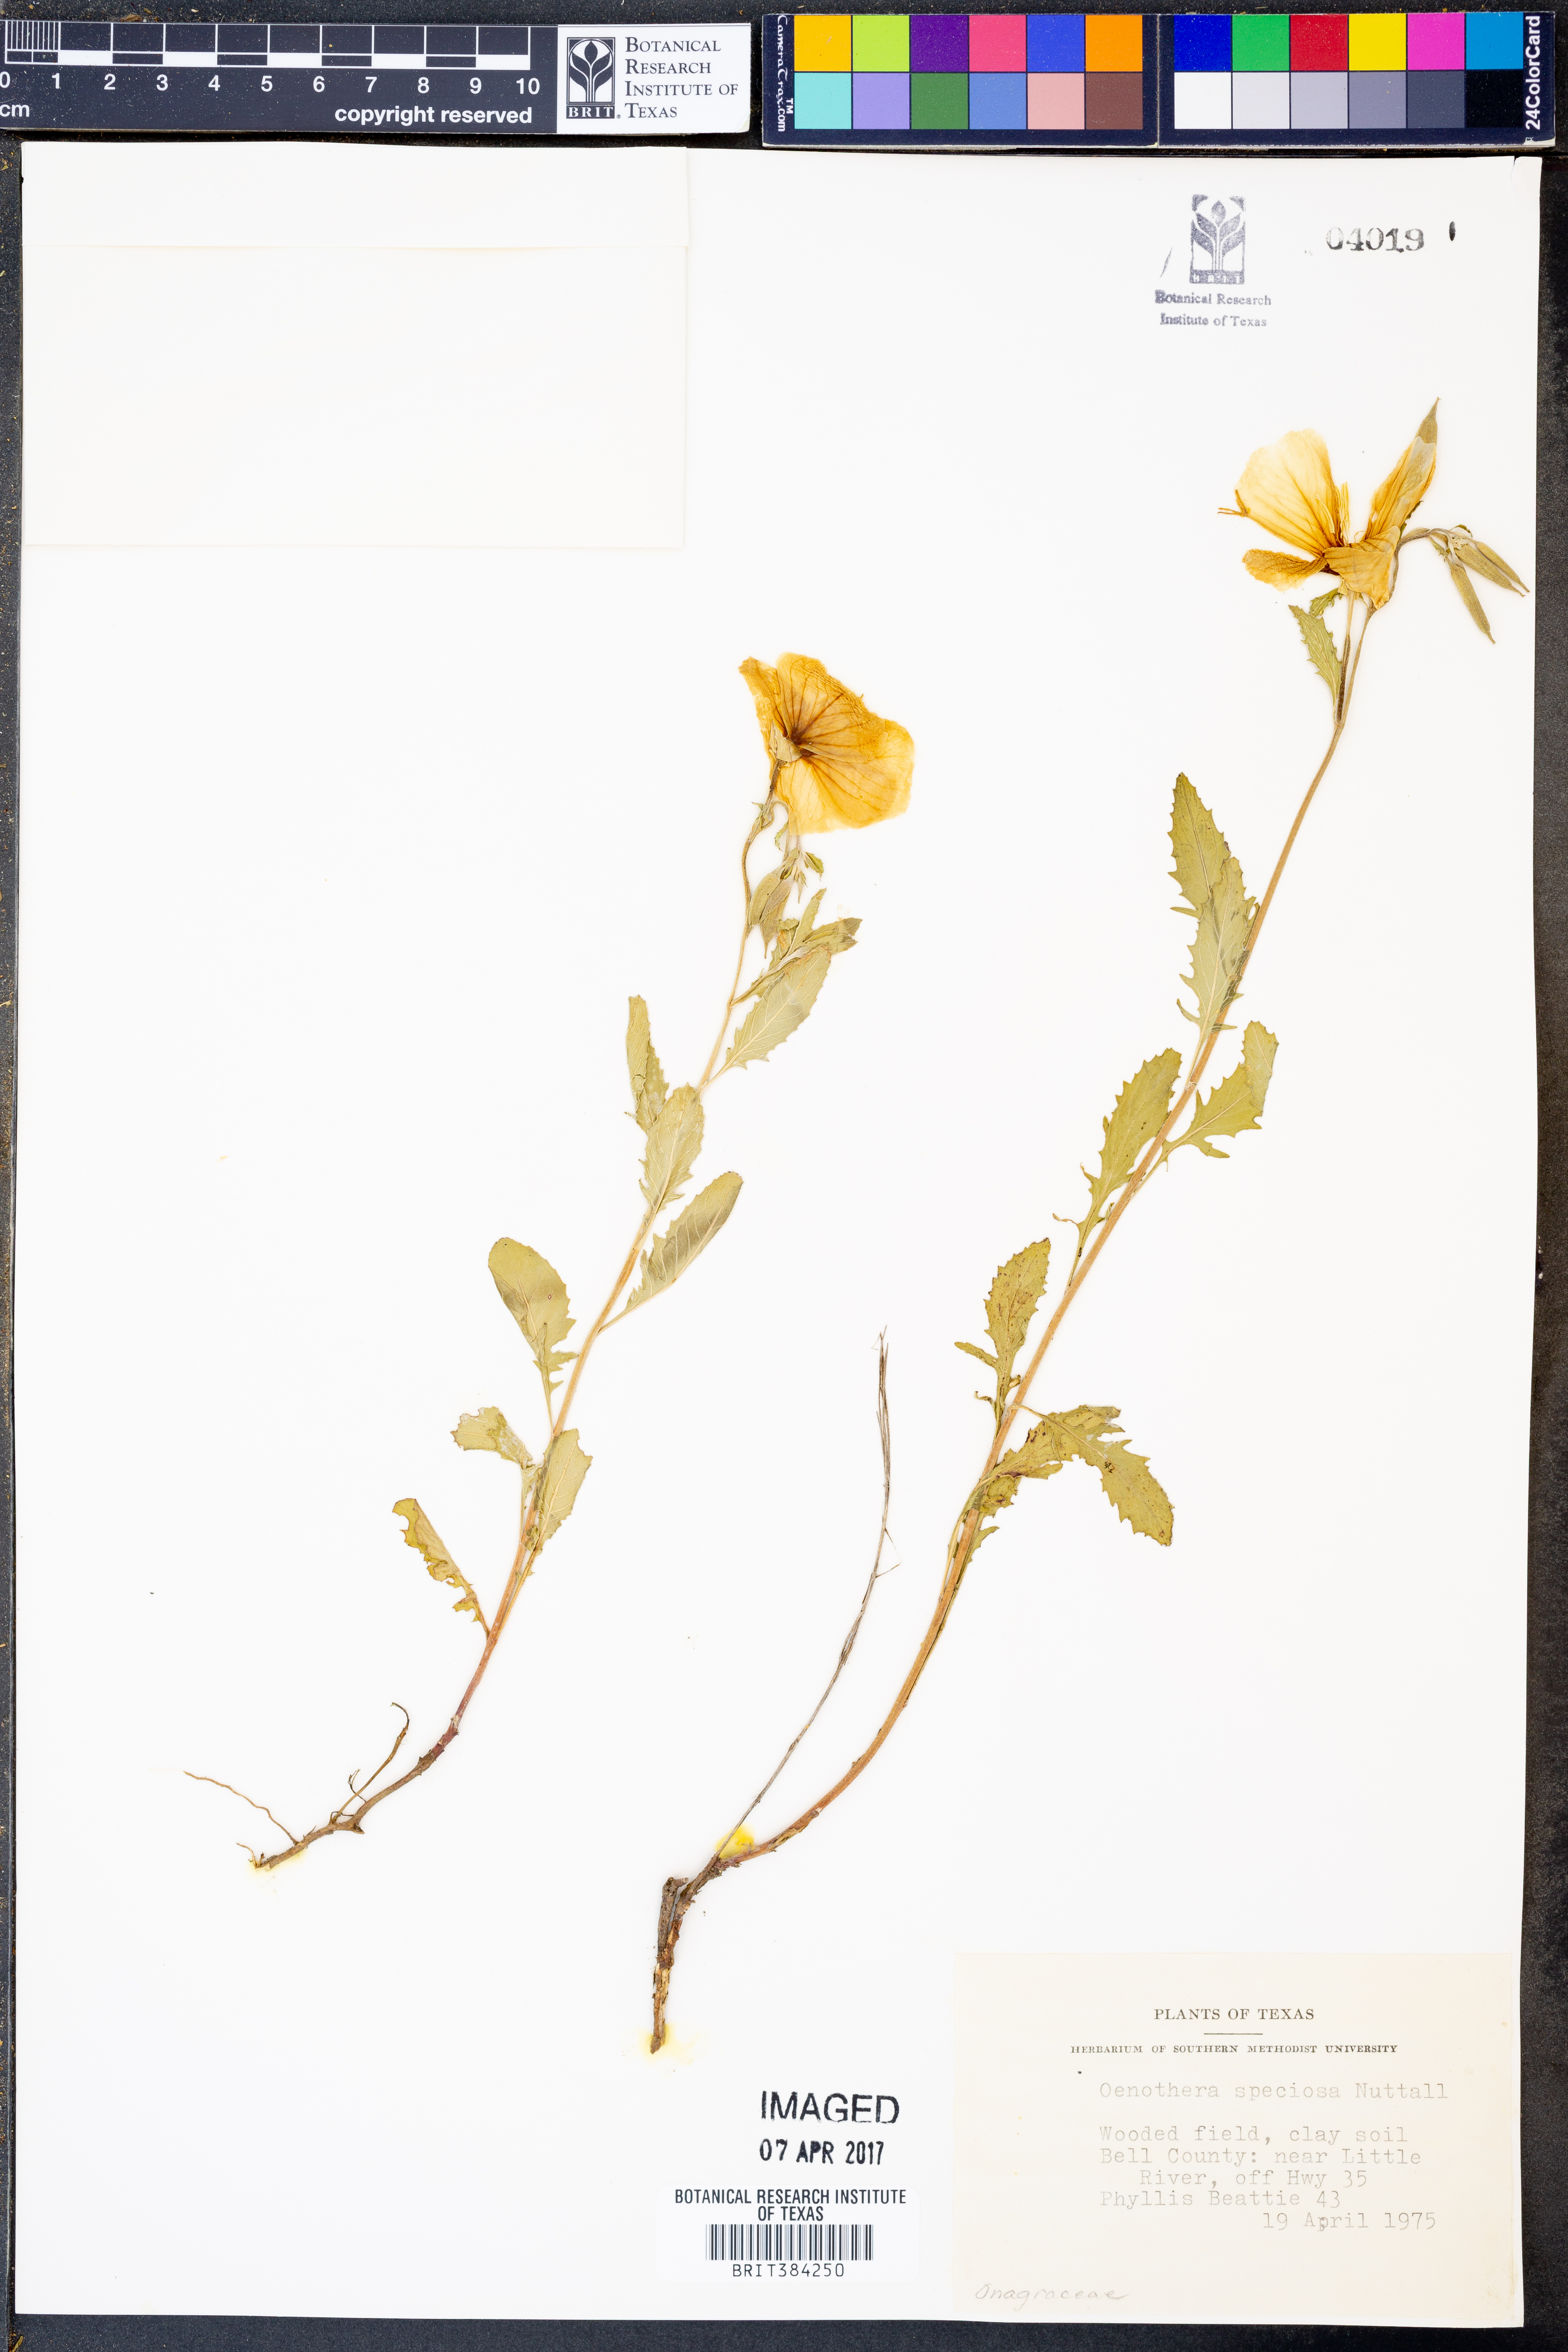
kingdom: Plantae
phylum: Tracheophyta
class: Magnoliopsida
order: Myrtales
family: Onagraceae
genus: Oenothera
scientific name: Oenothera speciosa
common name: White evening-primrose
